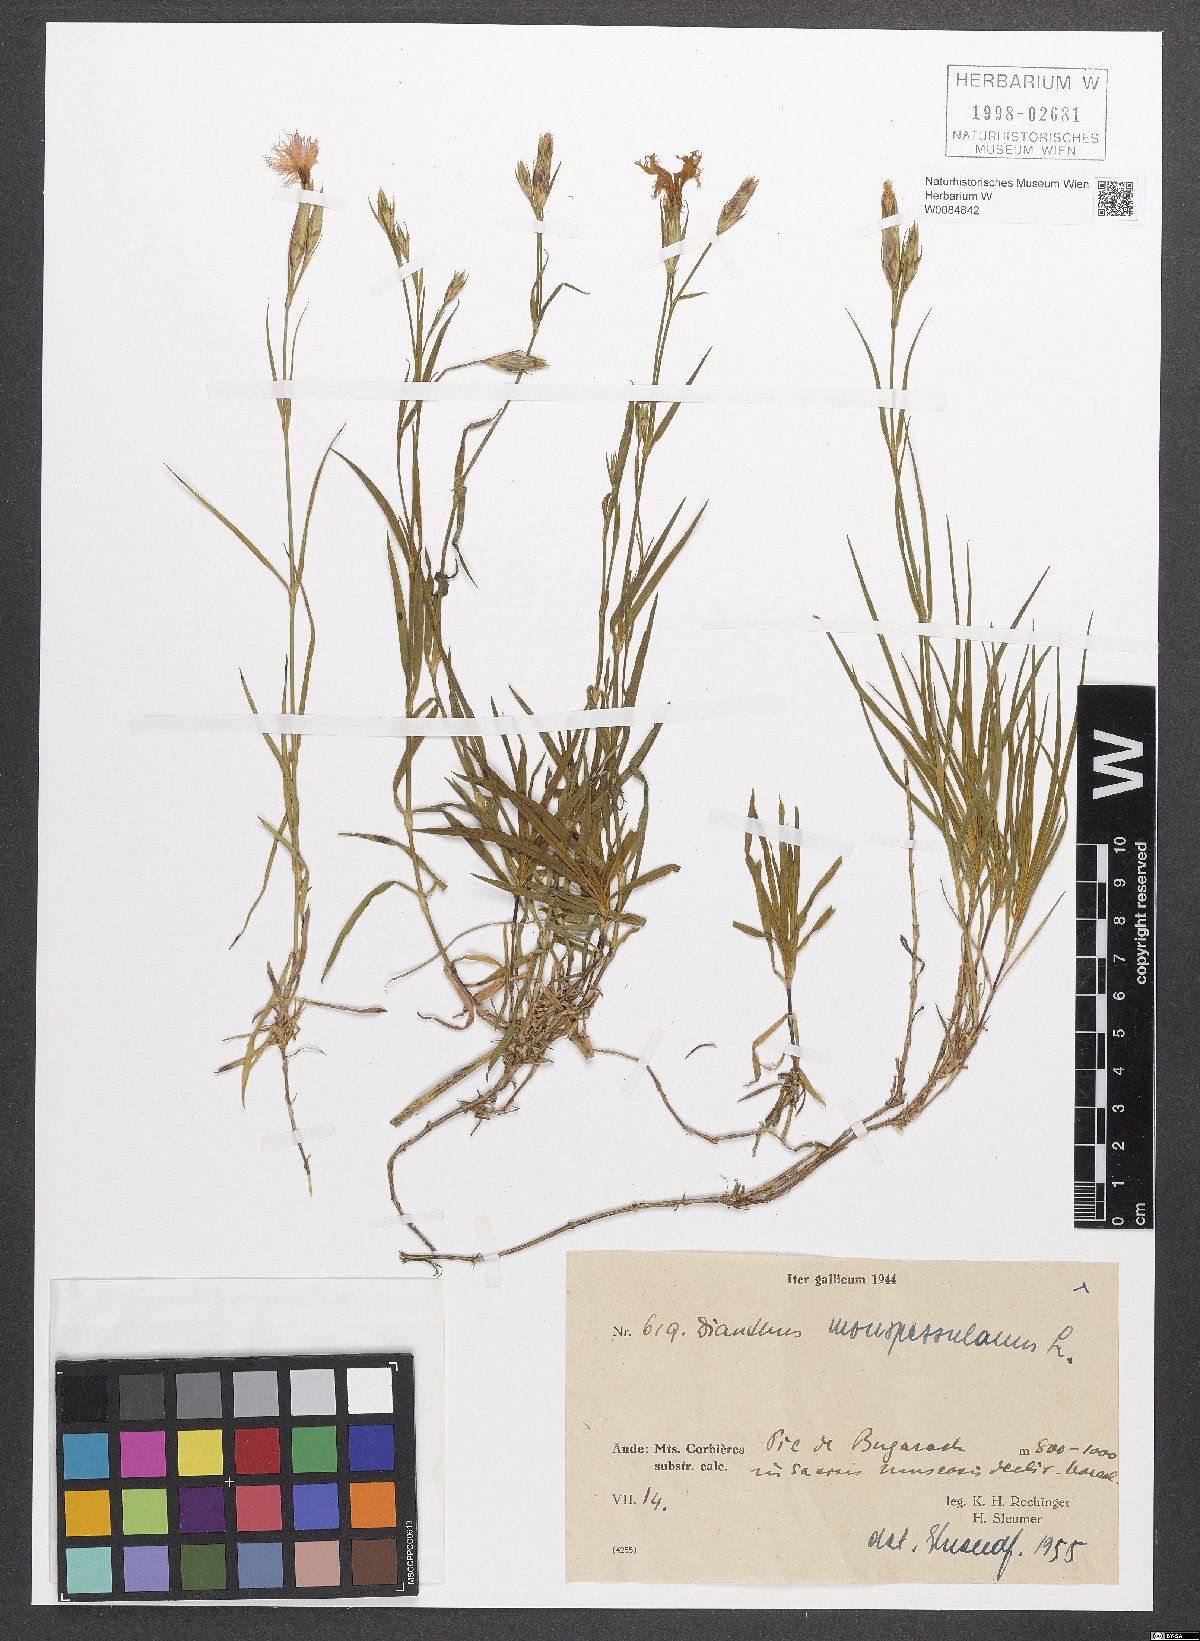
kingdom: Plantae
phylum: Tracheophyta
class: Magnoliopsida
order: Caryophyllales
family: Caryophyllaceae
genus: Dianthus
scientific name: Dianthus hyssopifolius
